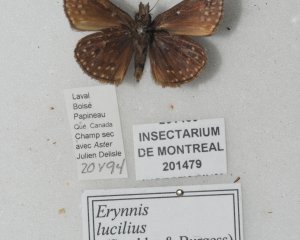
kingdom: Animalia
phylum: Arthropoda
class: Insecta
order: Lepidoptera
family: Hesperiidae
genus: Gesta
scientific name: Gesta
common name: Columbine Duskywing
